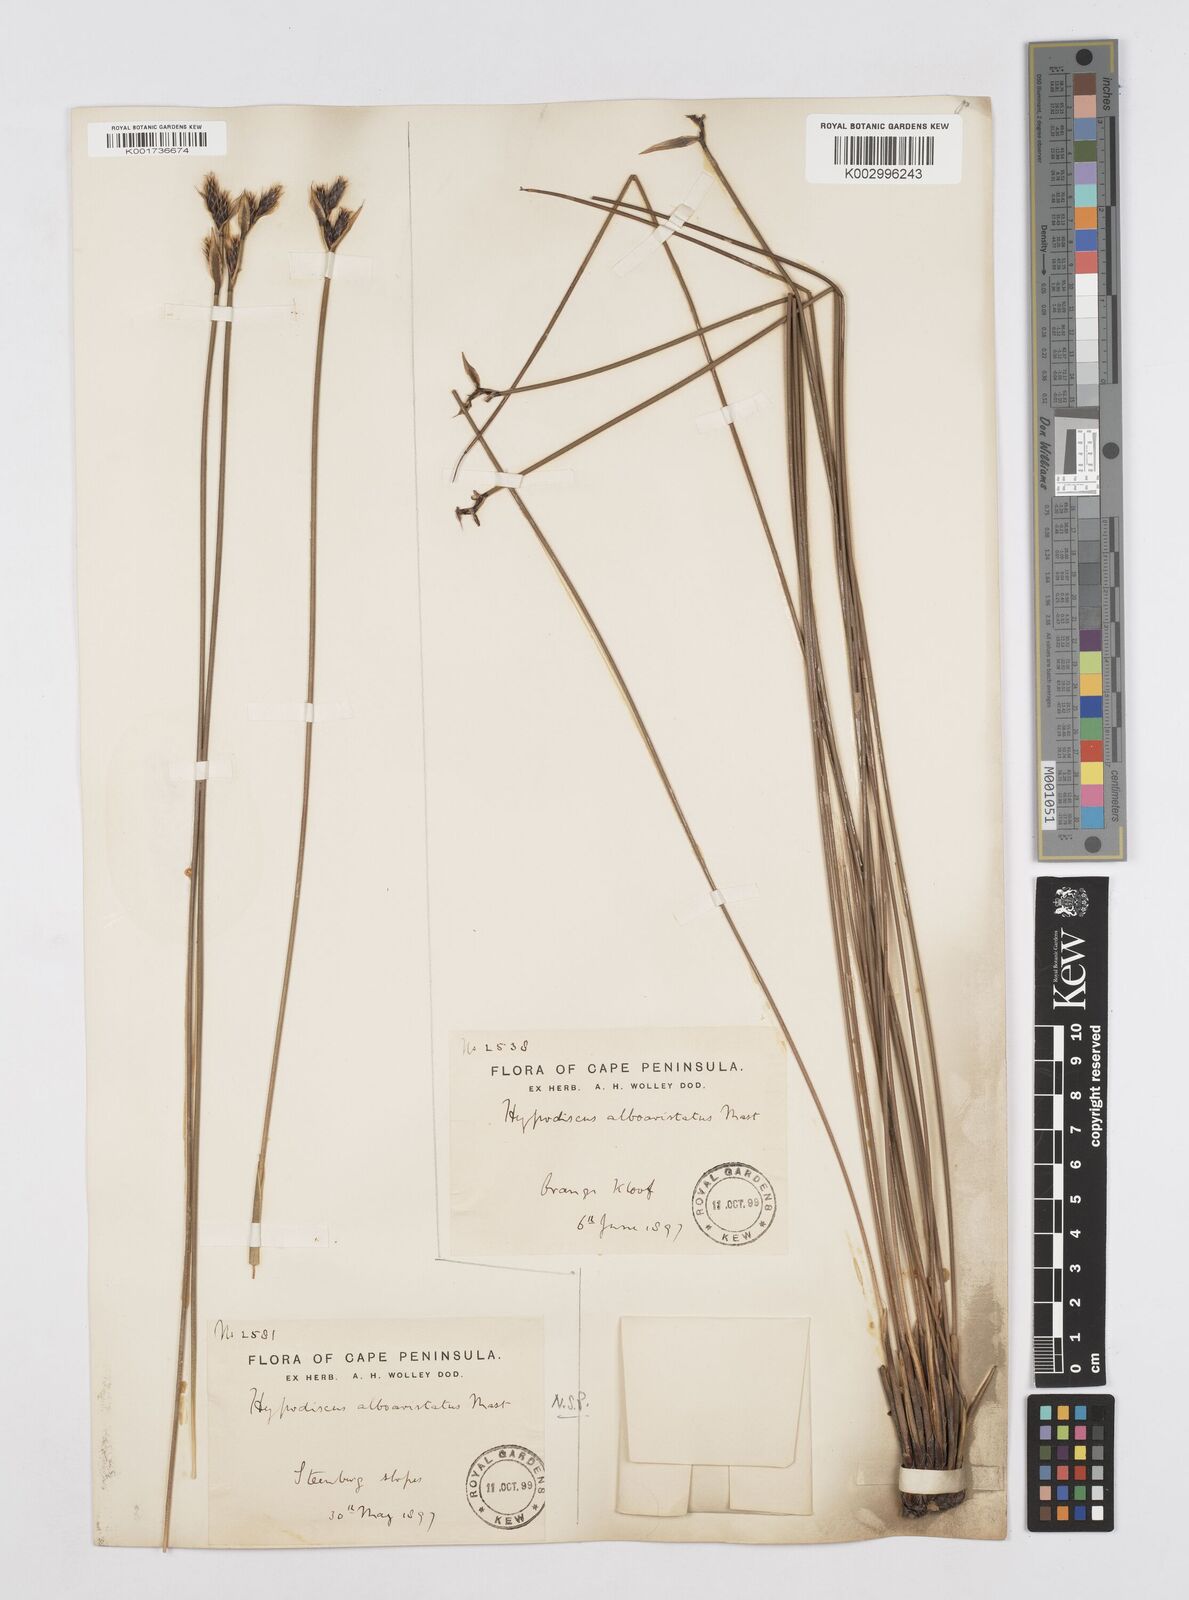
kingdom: Plantae
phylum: Tracheophyta
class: Liliopsida
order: Poales
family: Restionaceae
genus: Hypodiscus
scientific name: Hypodiscus alboaristatus
